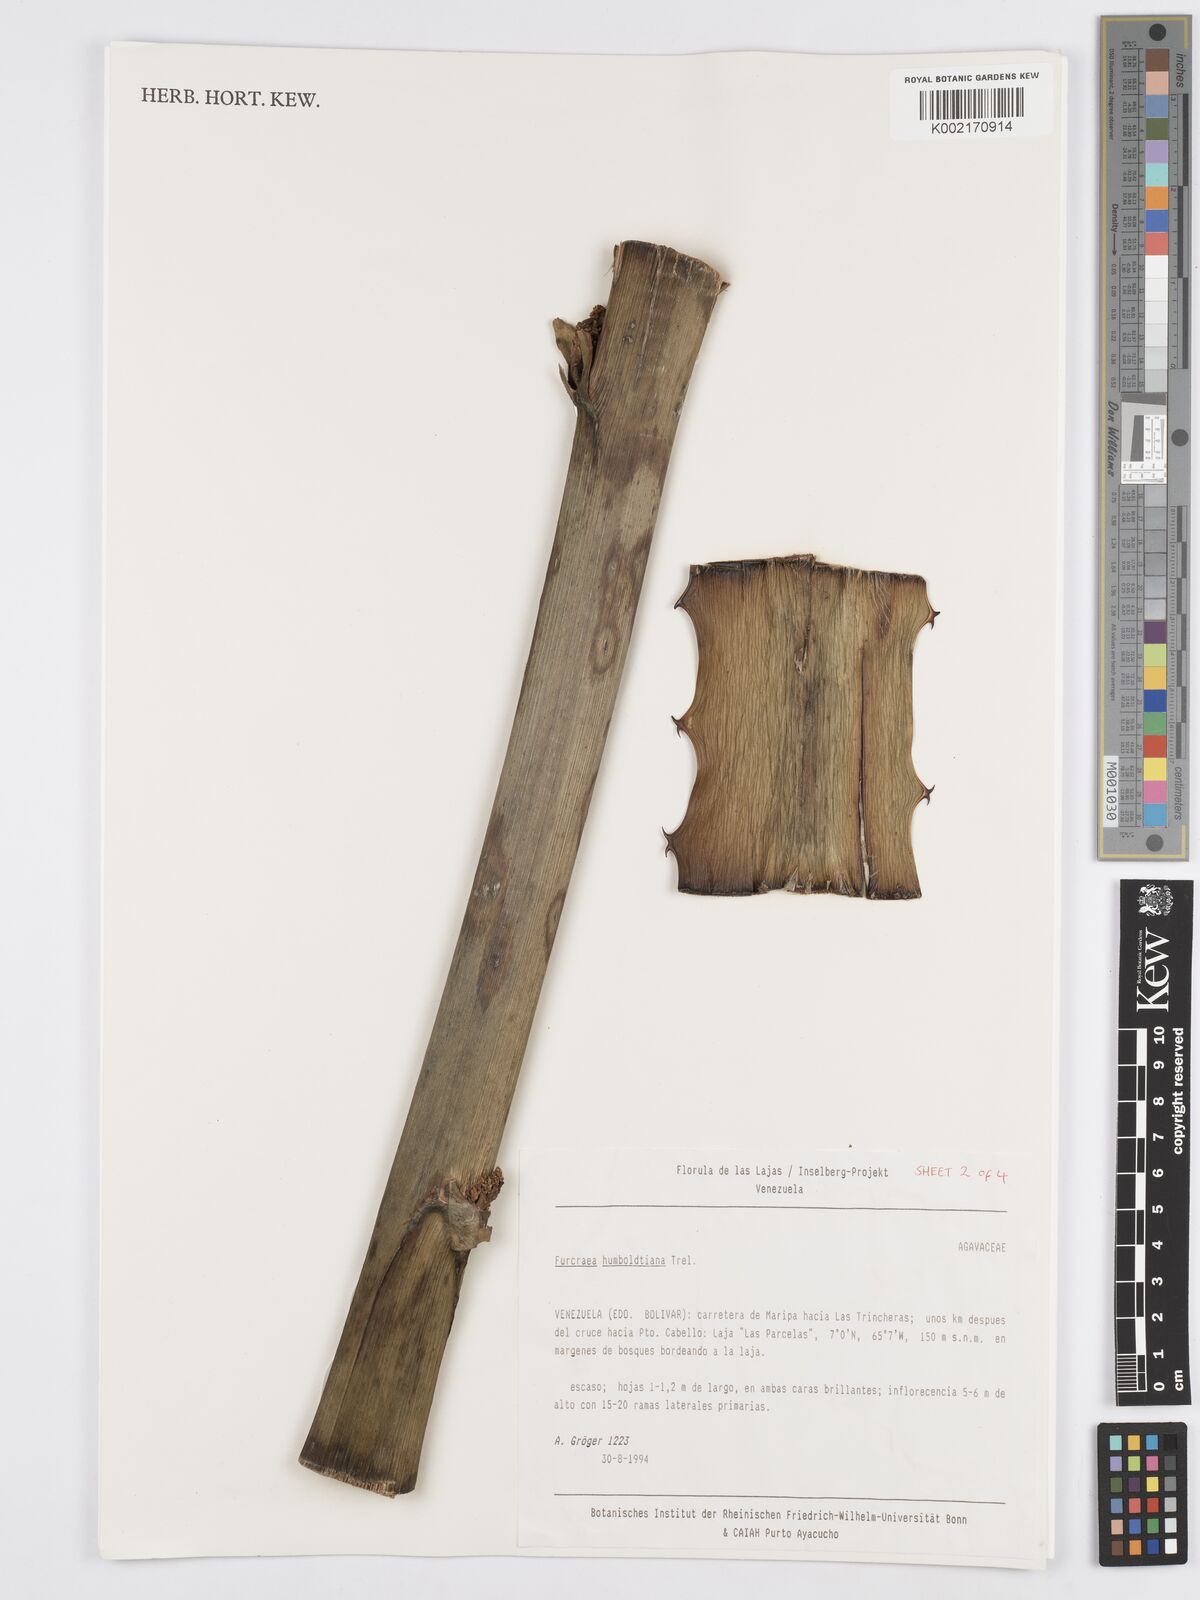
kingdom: Plantae
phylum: Tracheophyta
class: Liliopsida
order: Asparagales
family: Asparagaceae
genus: Furcraea
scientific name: Furcraea acaulis
